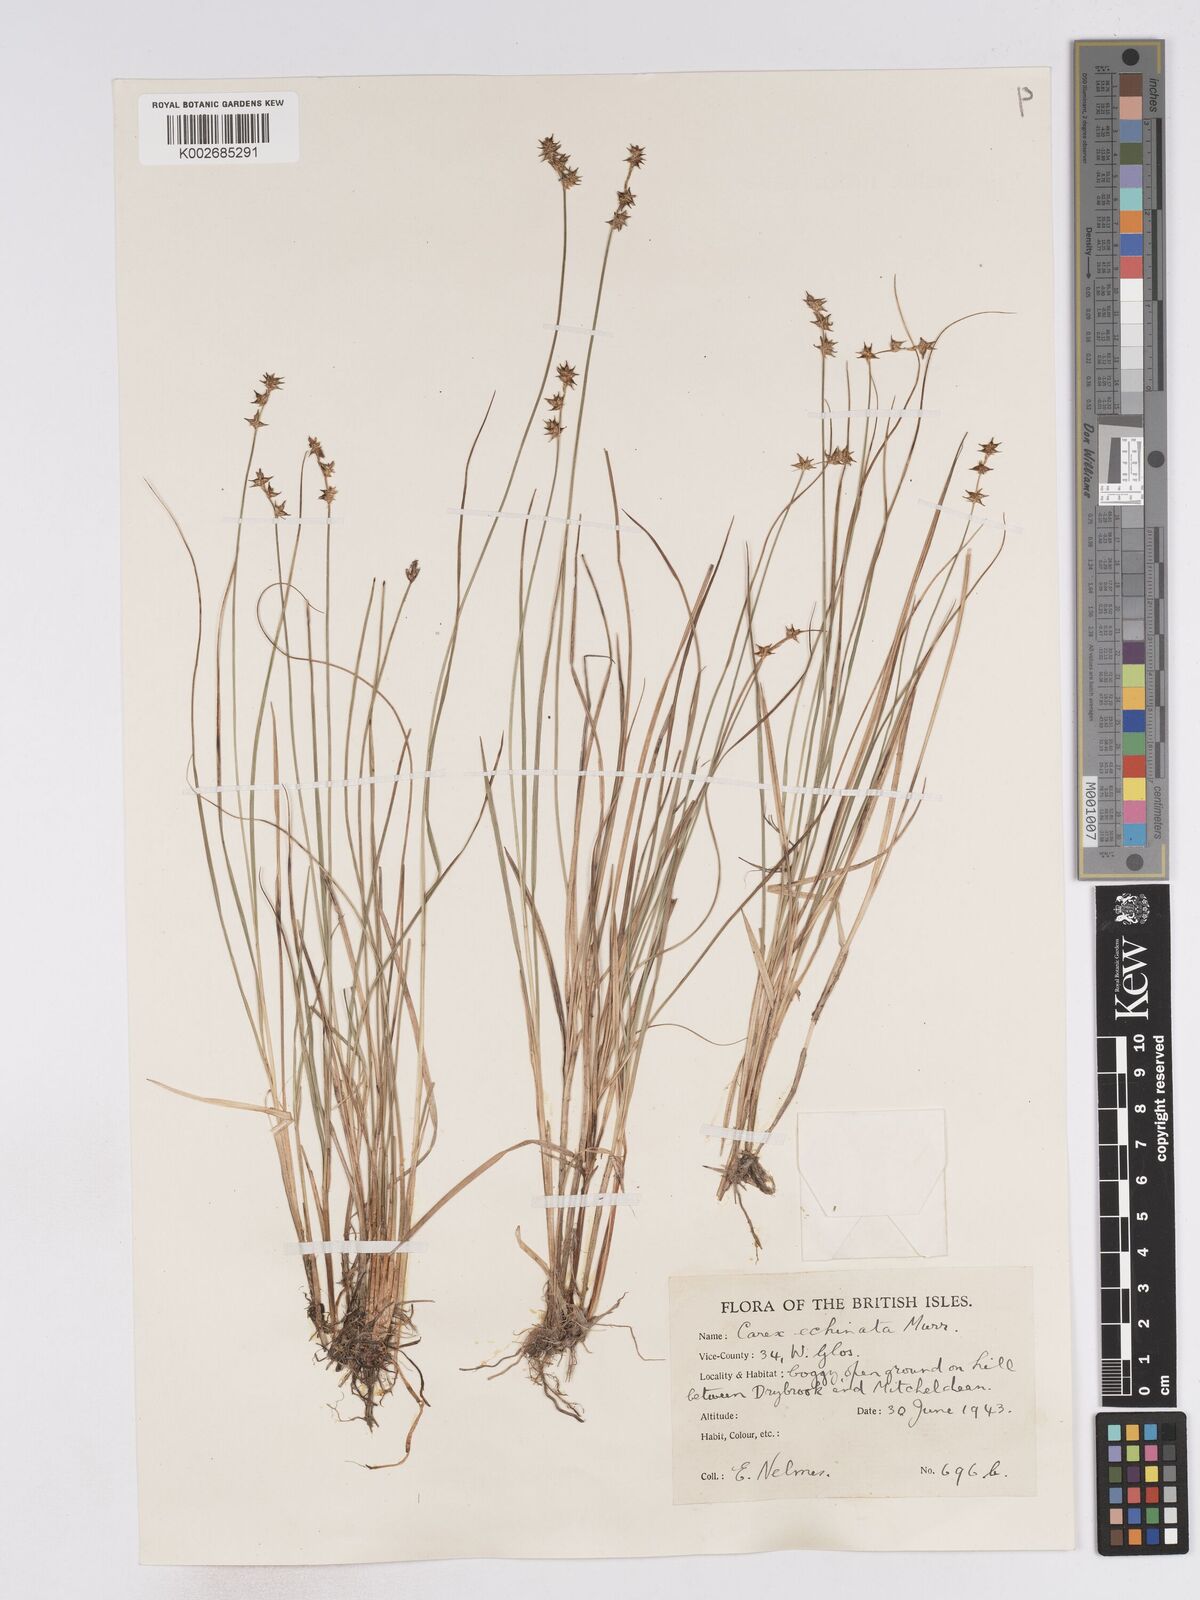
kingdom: Plantae
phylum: Tracheophyta
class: Liliopsida
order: Poales
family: Cyperaceae
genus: Carex
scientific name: Carex echinata
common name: Star sedge
